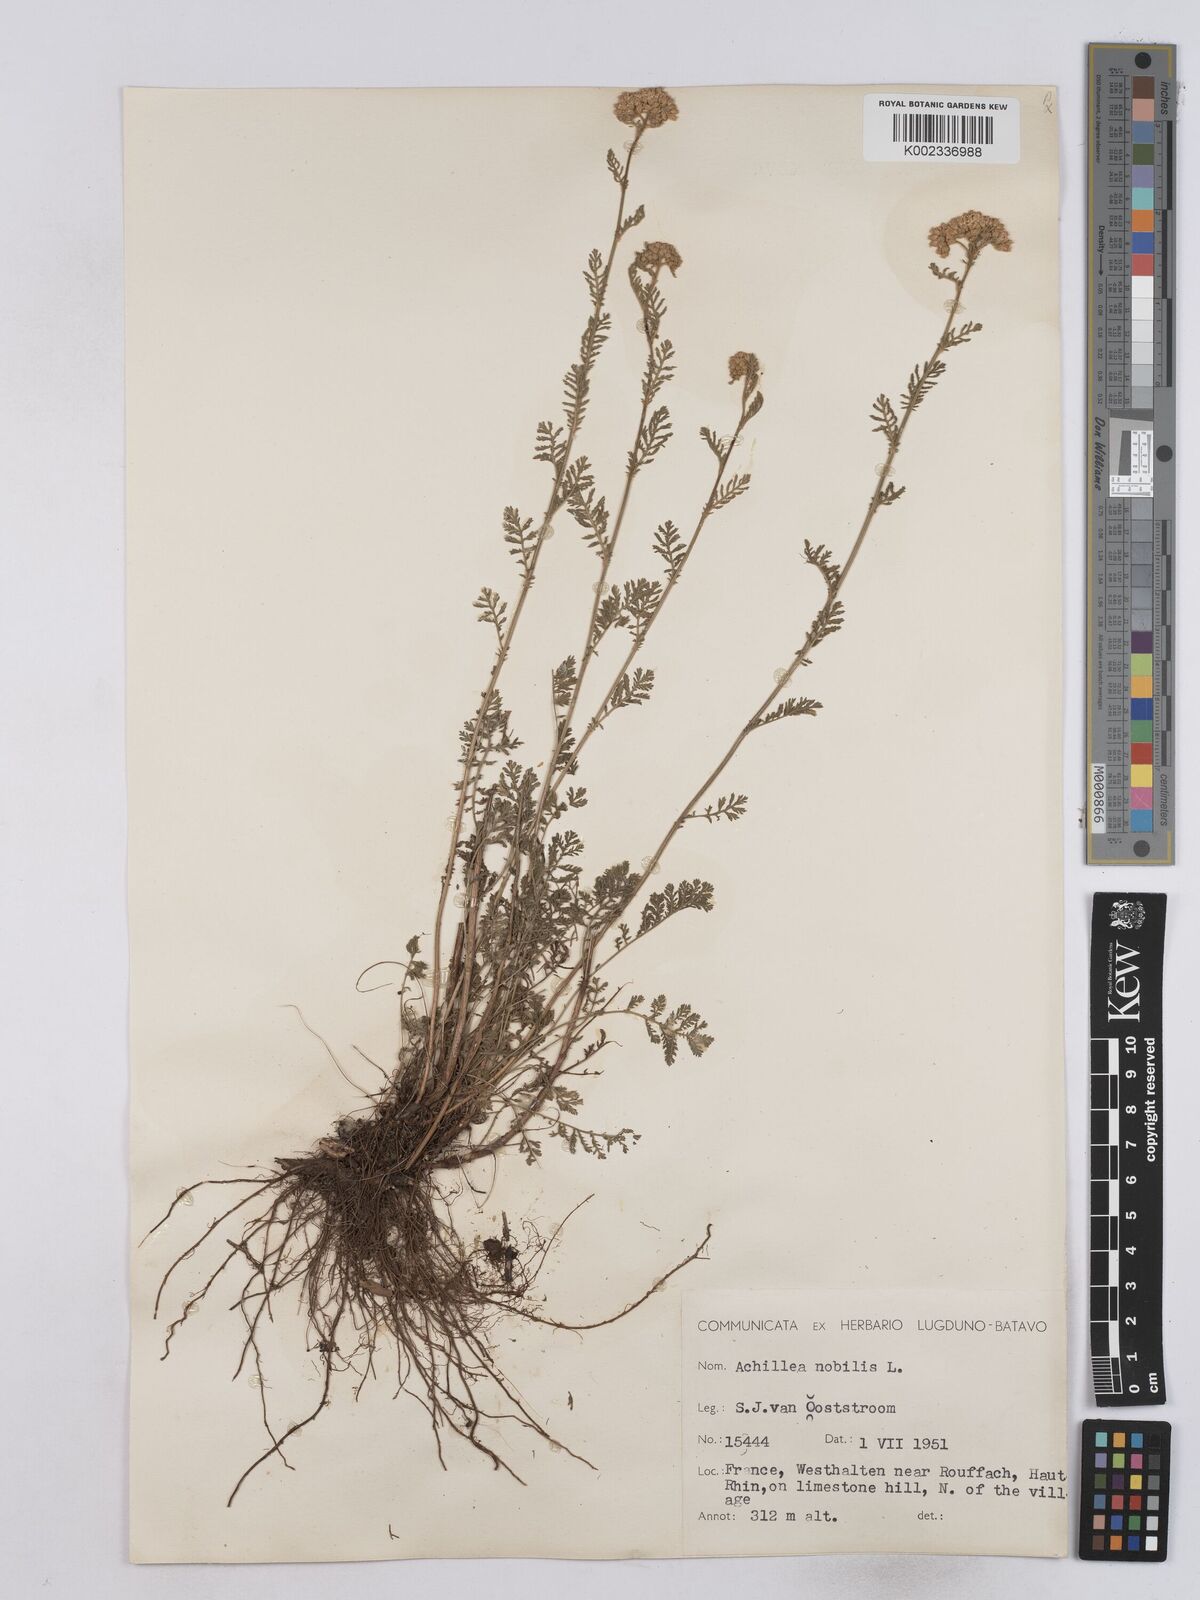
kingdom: Plantae
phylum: Tracheophyta
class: Magnoliopsida
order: Asterales
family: Asteraceae
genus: Achillea
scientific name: Achillea nobilis
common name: Noble yarrow
